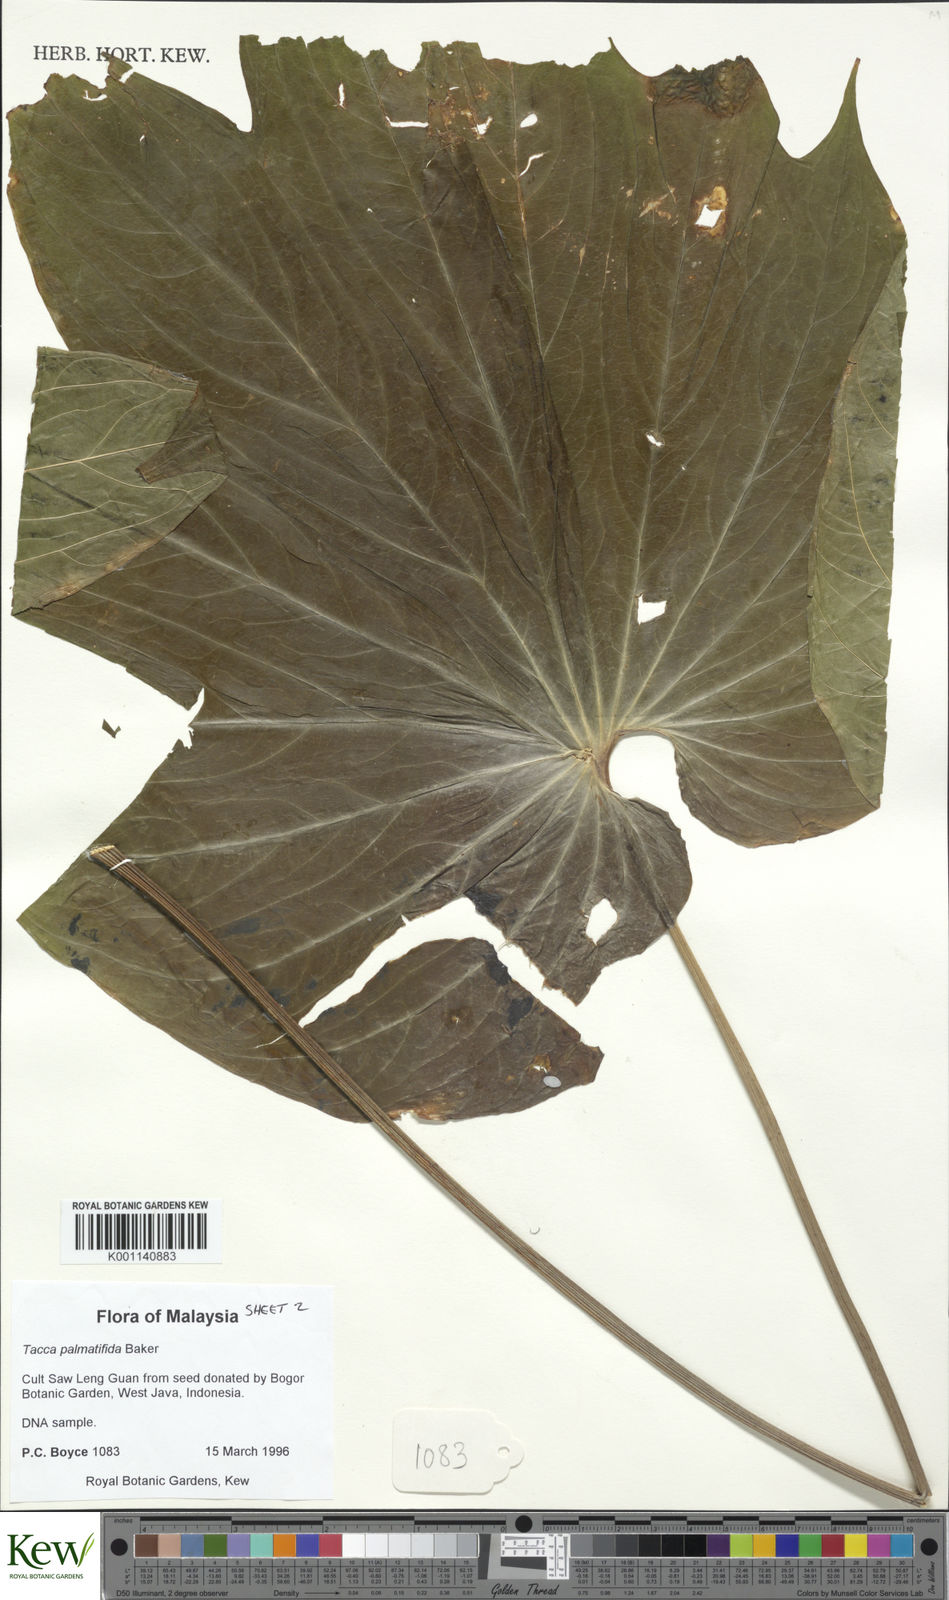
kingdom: Plantae
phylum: Tracheophyta
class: Liliopsida
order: Dioscoreales
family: Dioscoreaceae
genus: Tacca
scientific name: Tacca plantaginea
